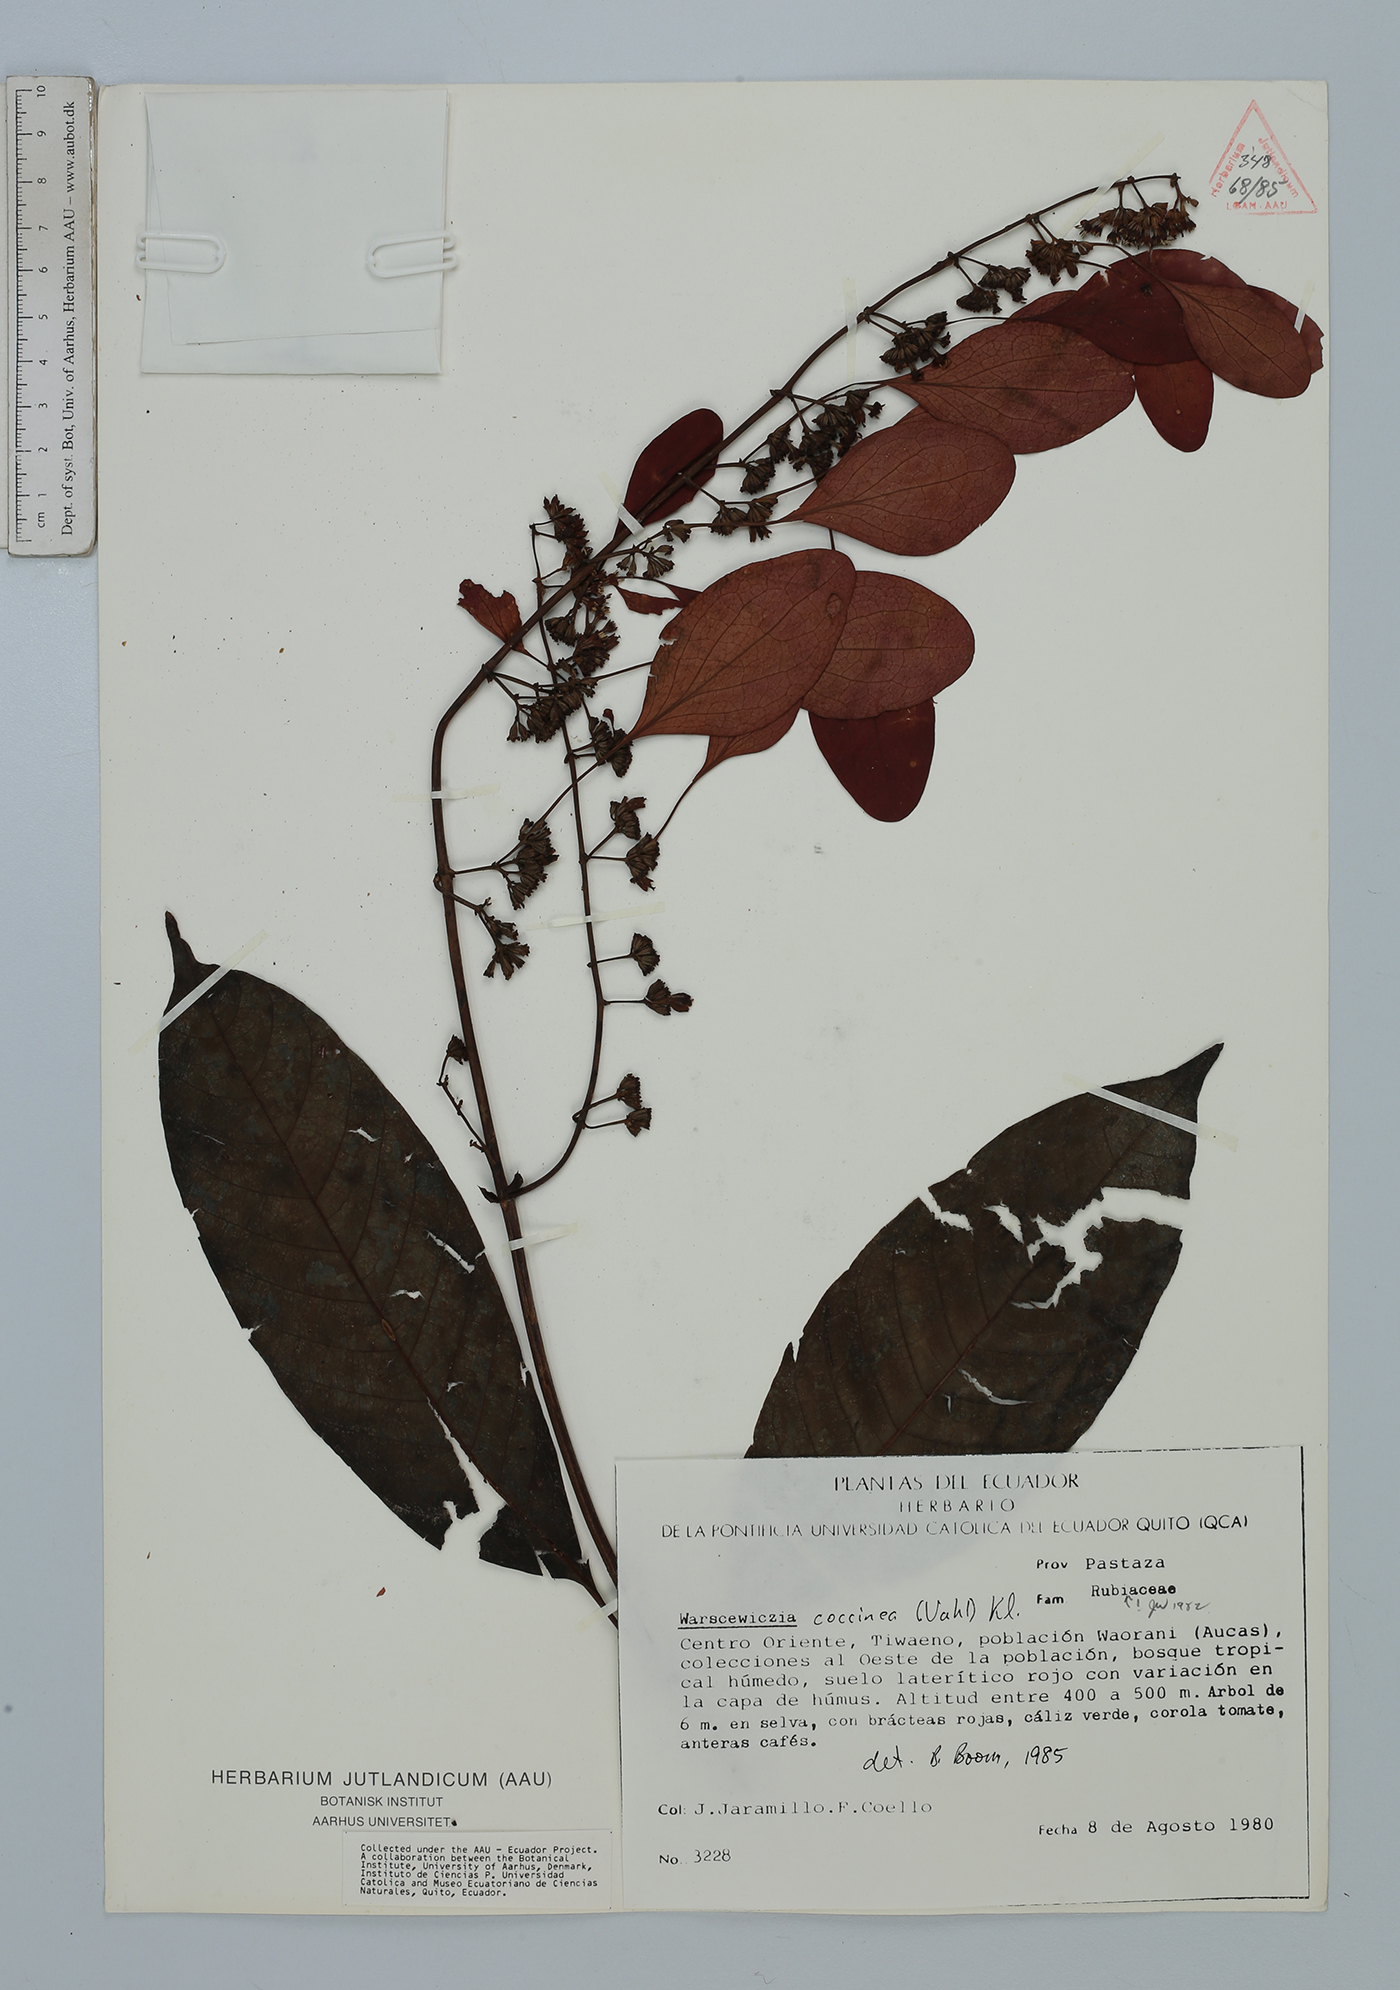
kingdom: Plantae
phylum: Tracheophyta
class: Magnoliopsida
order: Gentianales
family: Rubiaceae
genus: Warszewiczia
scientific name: Warszewiczia coccinea
